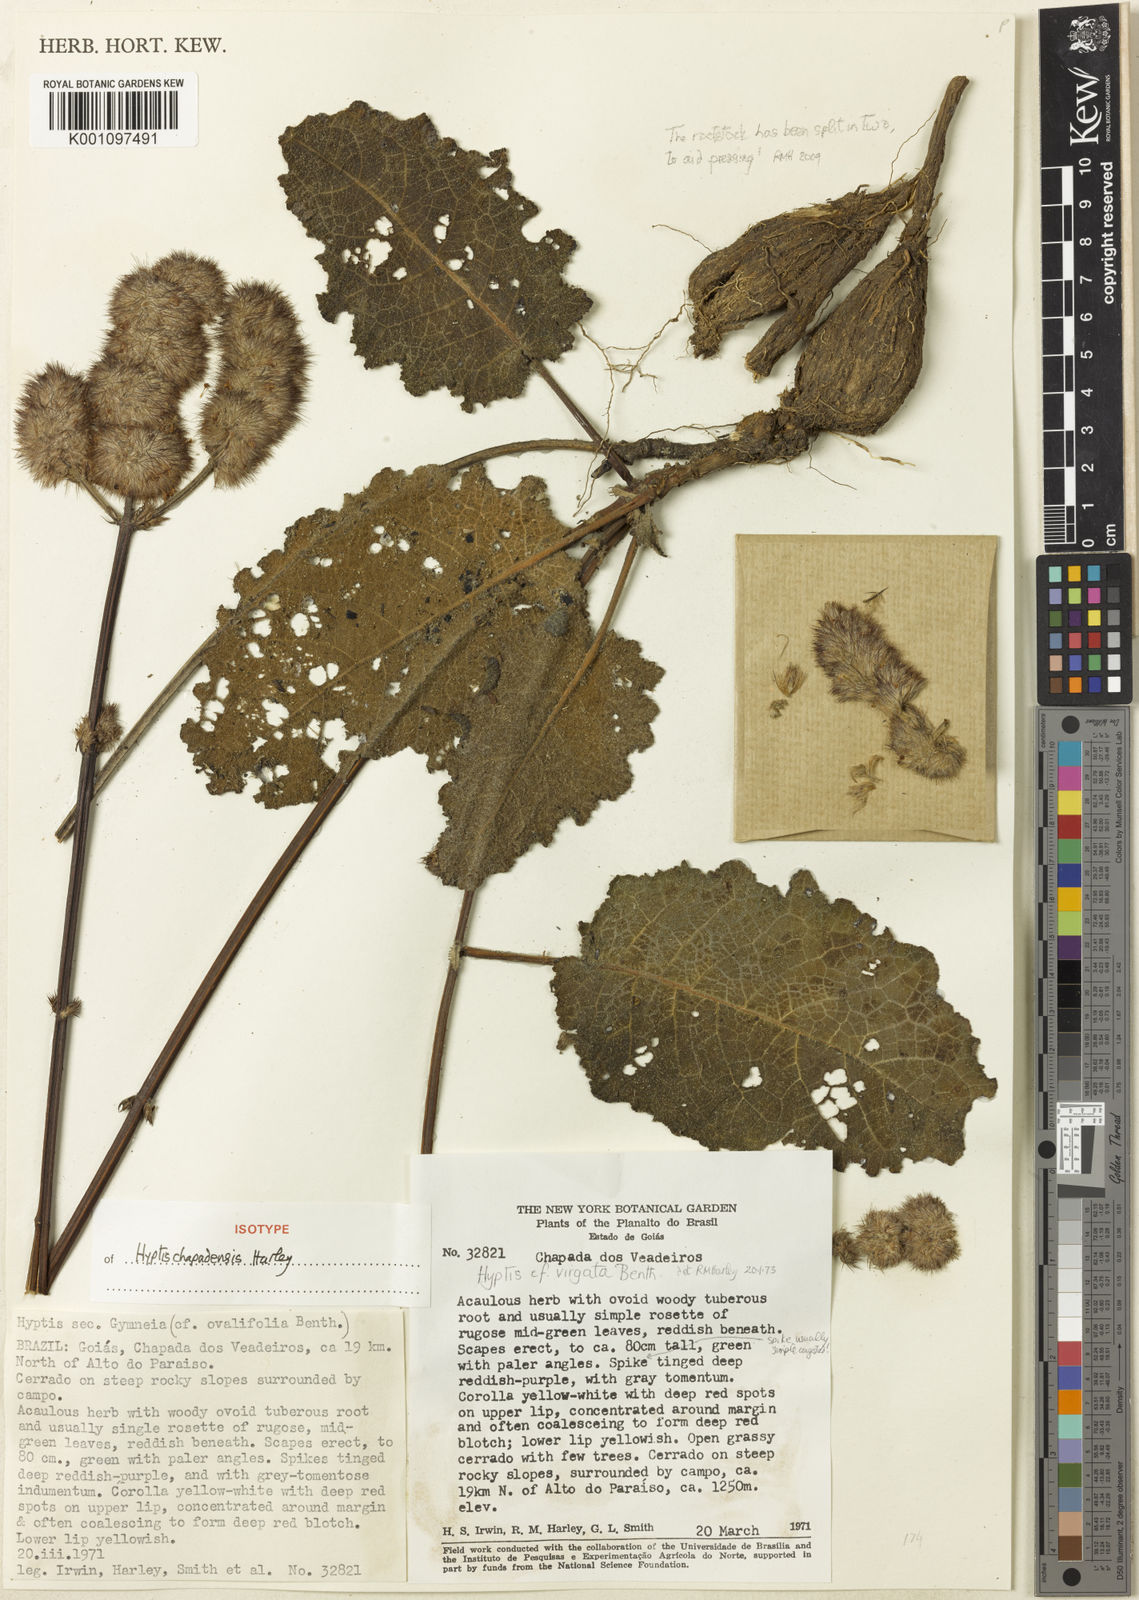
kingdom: Plantae
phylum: Tracheophyta
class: Magnoliopsida
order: Lamiales
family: Lamiaceae
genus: Hyptis
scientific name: Hyptis
